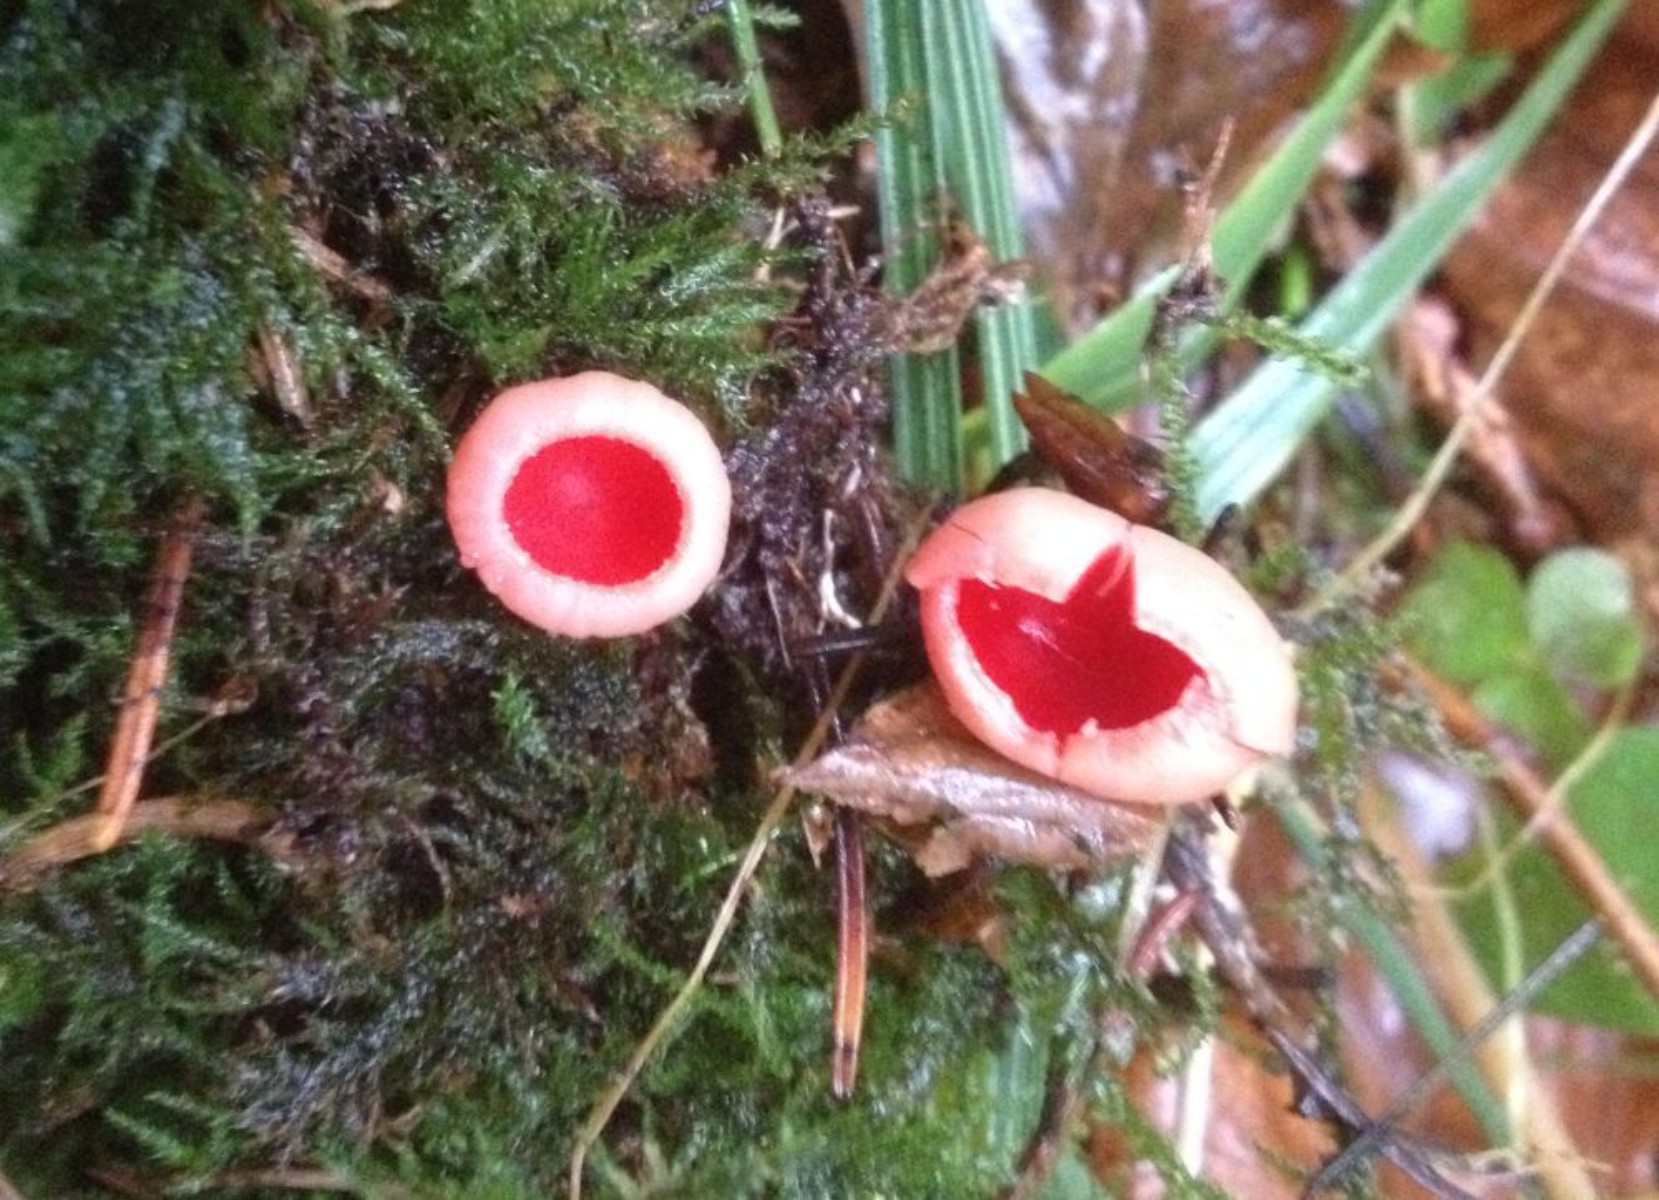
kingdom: Fungi
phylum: Ascomycota
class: Pezizomycetes
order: Pezizales
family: Sarcoscyphaceae
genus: Sarcoscypha
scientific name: Sarcoscypha austriaca
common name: krølhåret pragtbæger
